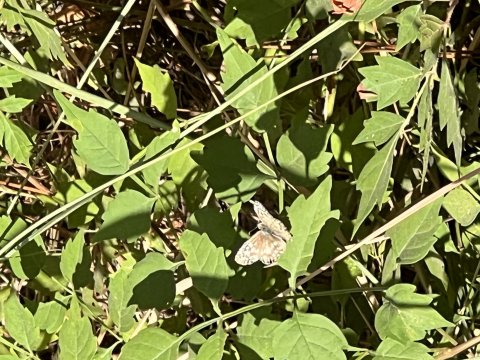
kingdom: Animalia
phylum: Arthropoda
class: Insecta
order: Lepidoptera
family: Hesperiidae
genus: Pyrgus
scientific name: Pyrgus oileus
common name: Tropical Checkered-Skipper
